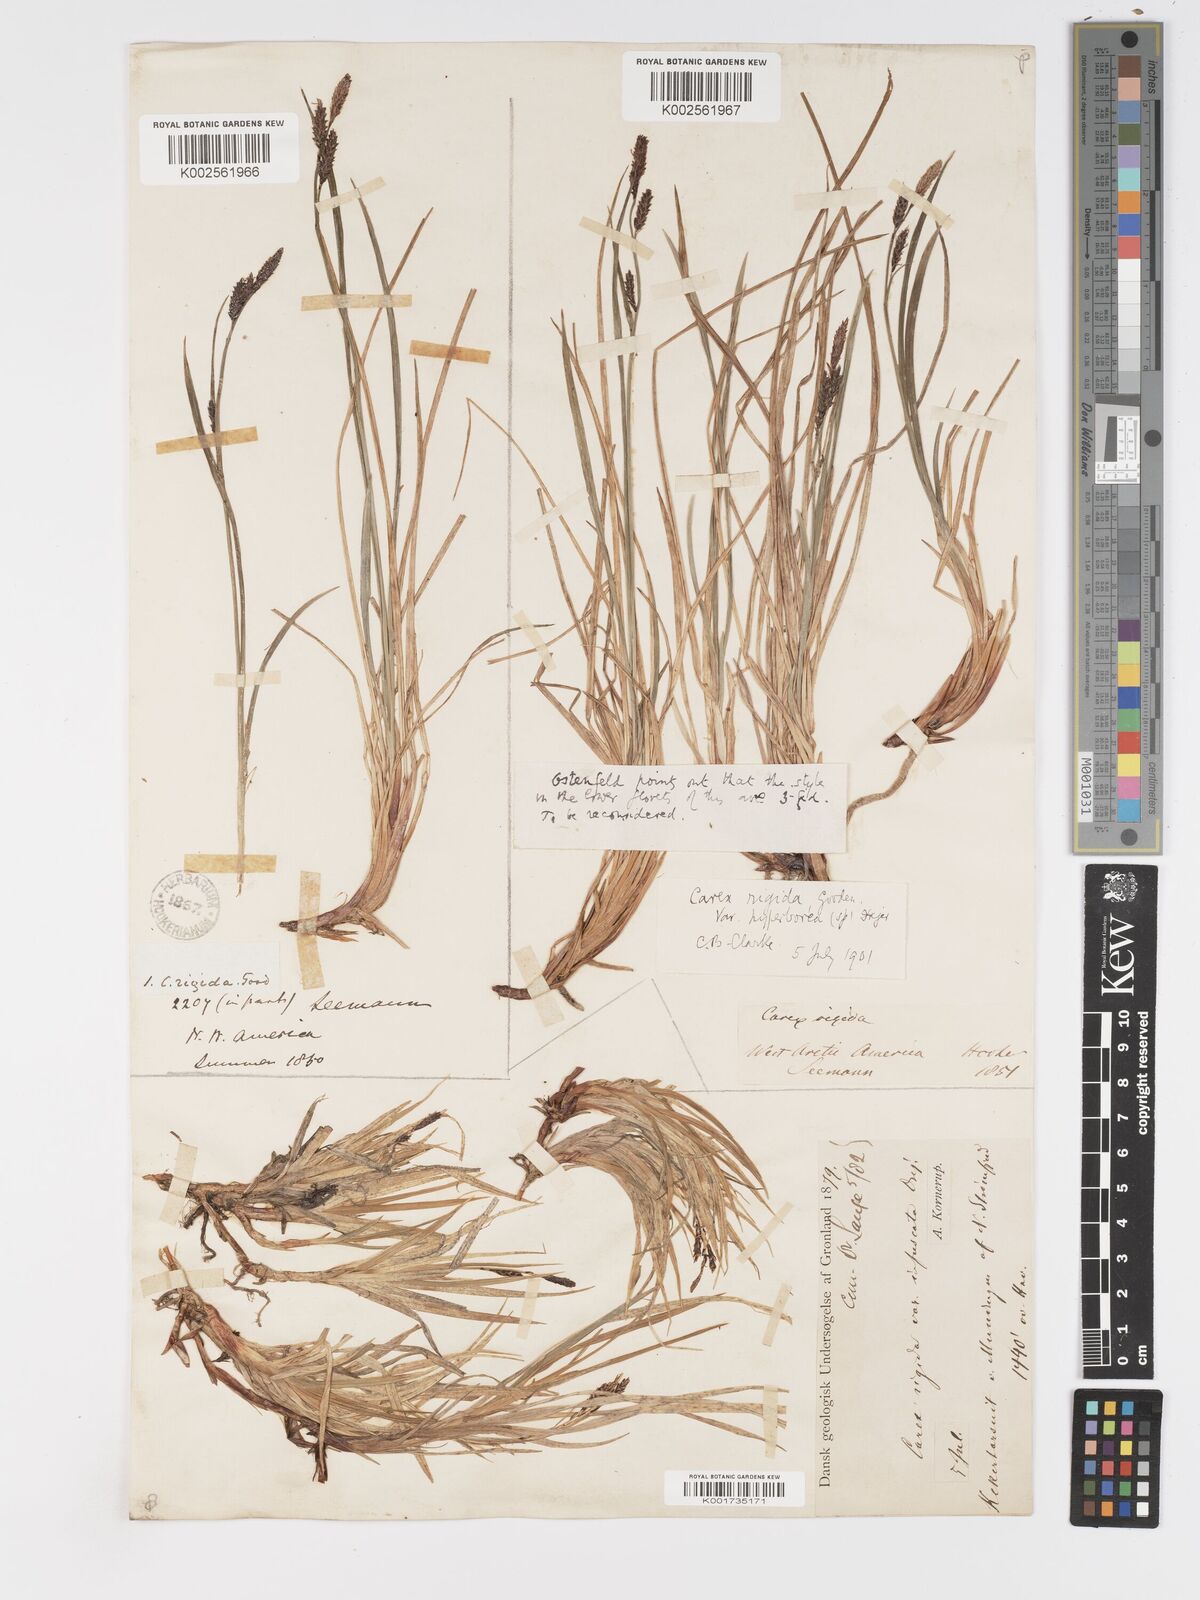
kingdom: Plantae
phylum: Tracheophyta
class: Liliopsida
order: Poales
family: Cyperaceae
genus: Carex
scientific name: Carex bigelowii
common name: Stiff sedge
